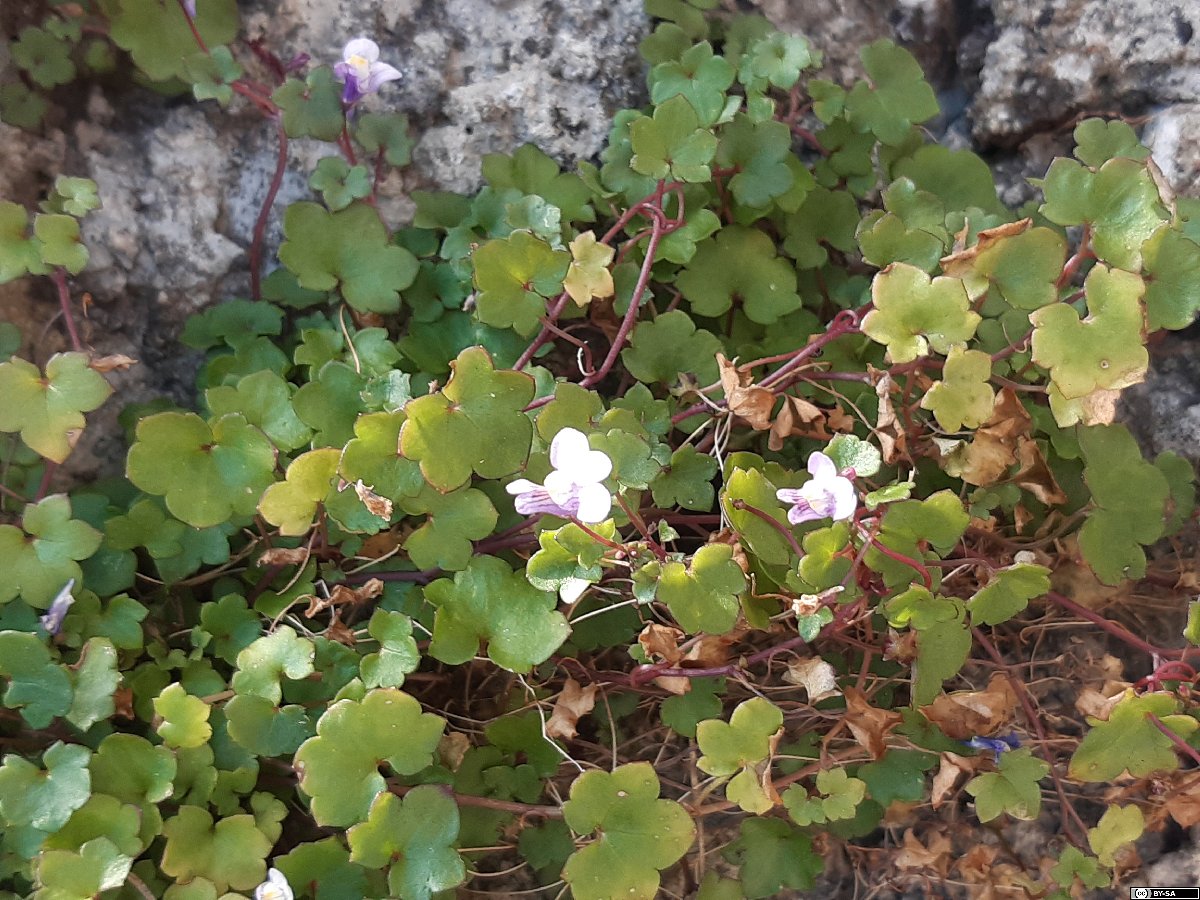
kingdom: Plantae
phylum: Tracheophyta
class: Magnoliopsida
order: Lamiales
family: Plantaginaceae
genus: Cymbalaria
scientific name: Cymbalaria muralis
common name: Ivy-leaved toadflax
